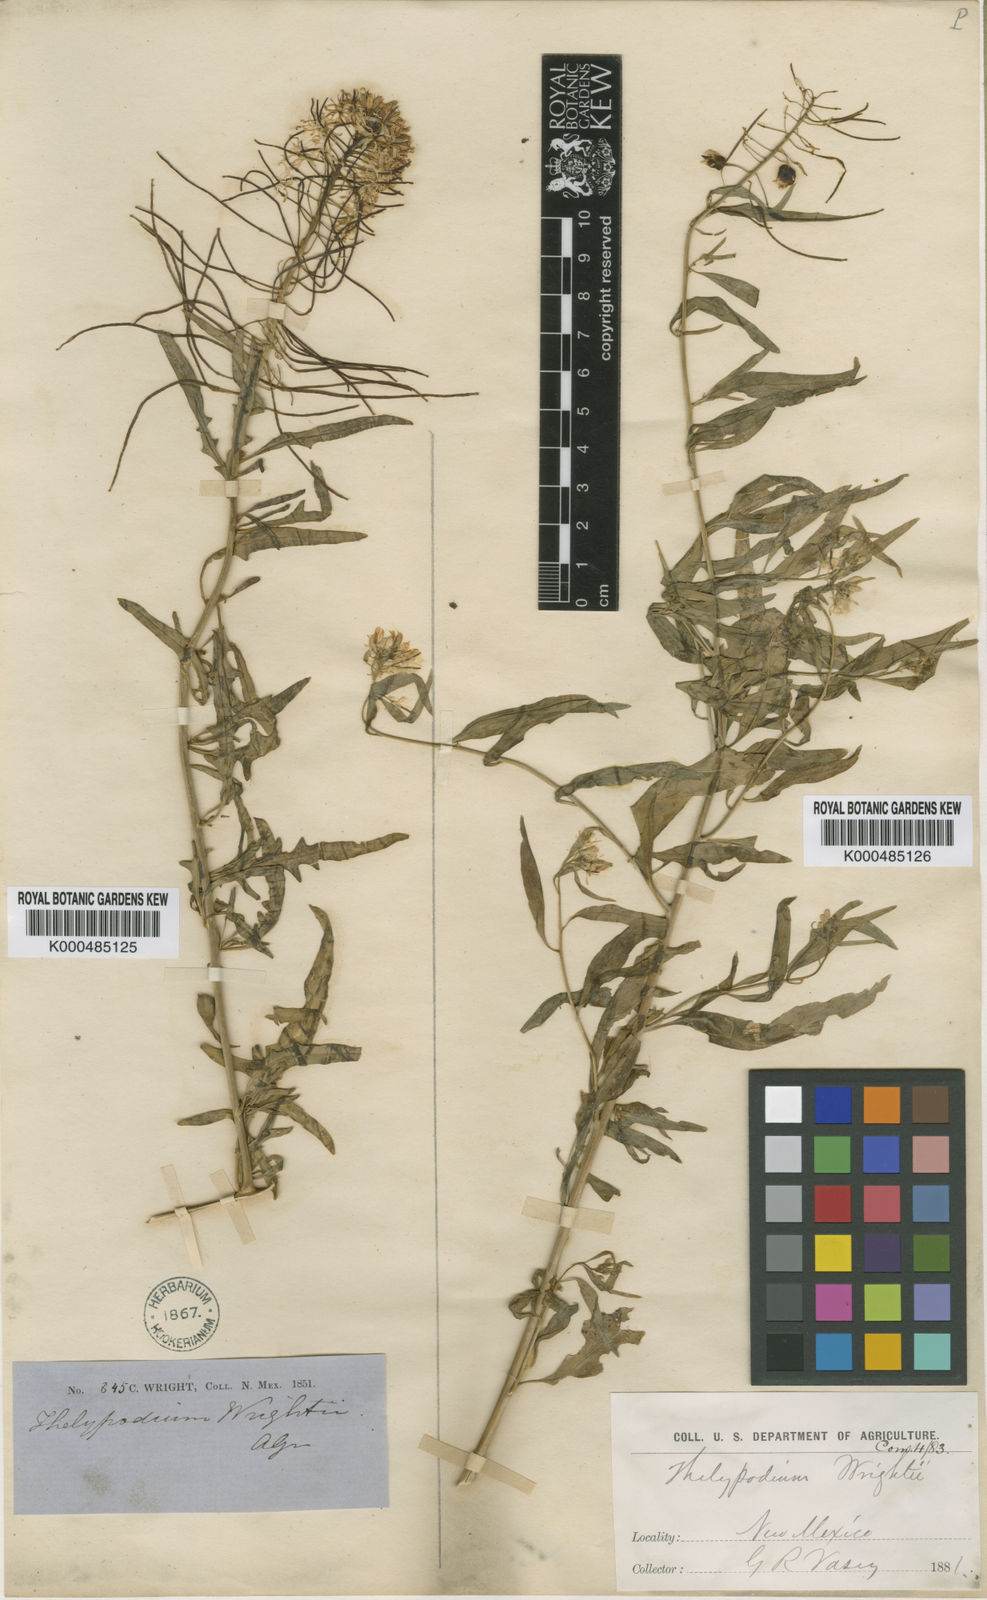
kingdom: Plantae
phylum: Tracheophyta
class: Magnoliopsida
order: Brassicales
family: Brassicaceae
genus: Thelypodium
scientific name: Thelypodium wrightii
